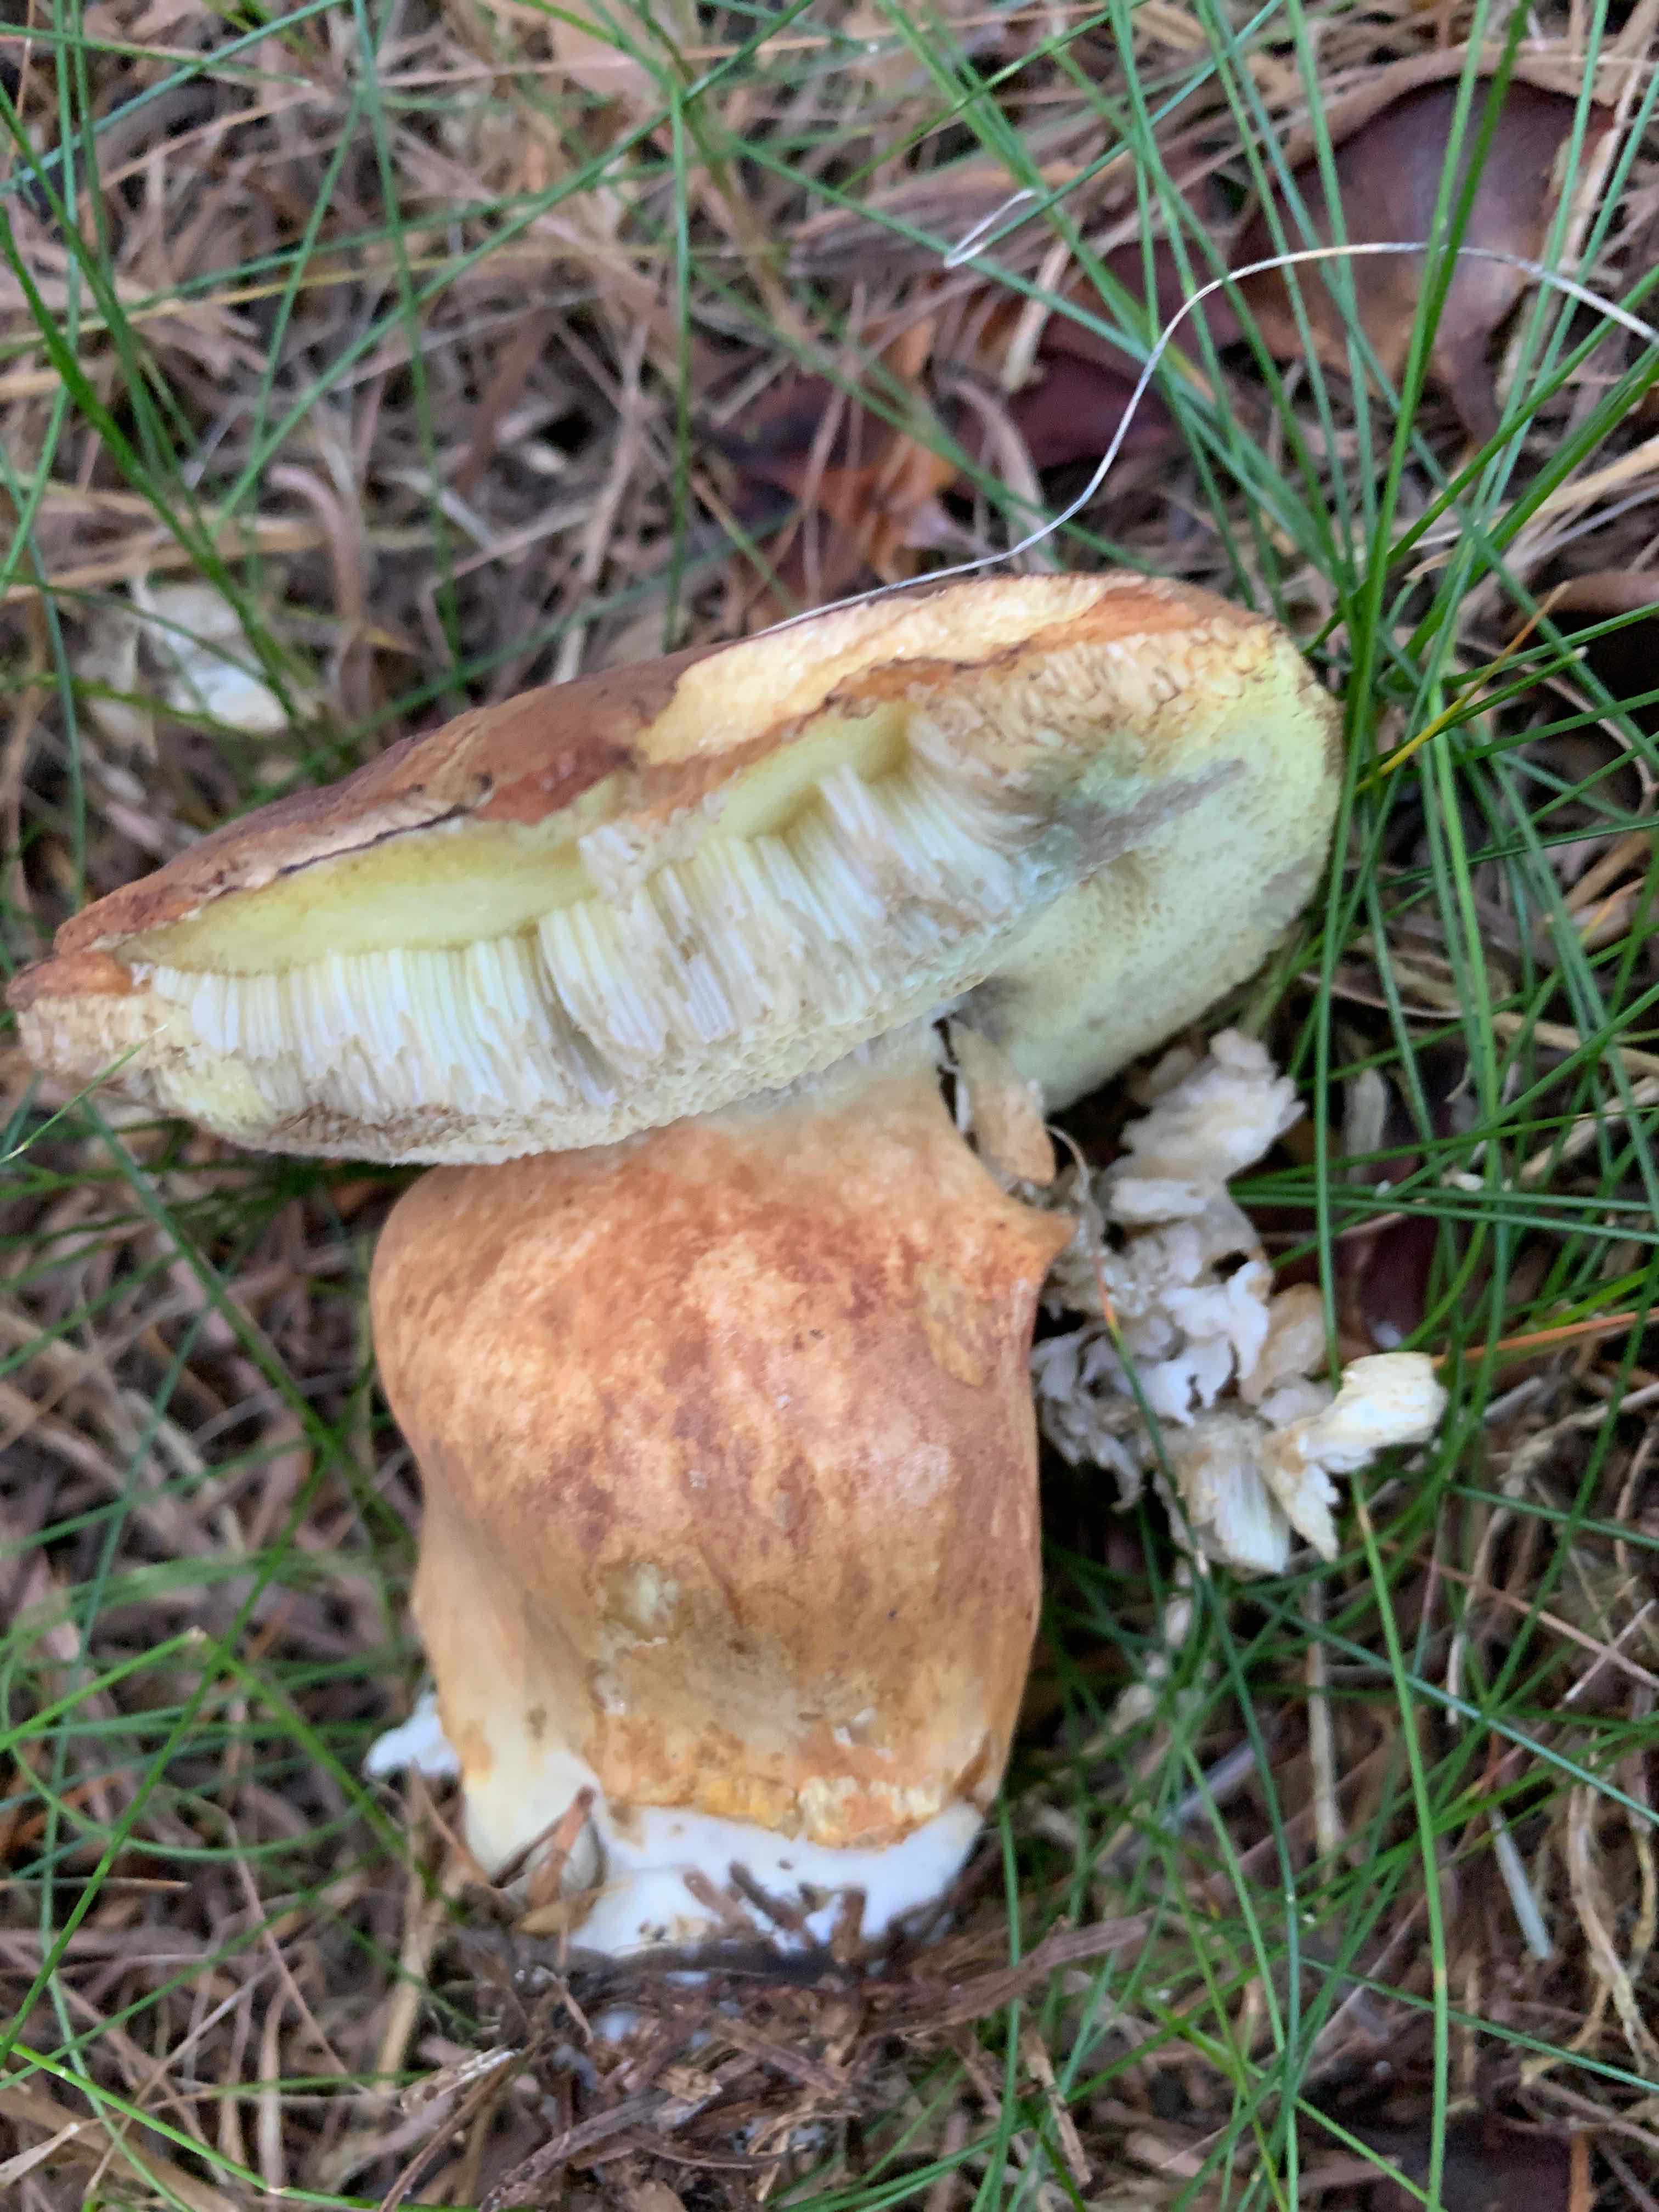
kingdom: Fungi
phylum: Basidiomycota
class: Agaricomycetes
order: Boletales
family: Boletaceae
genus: Imleria
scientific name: Imleria badia
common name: brunstokket rørhat
